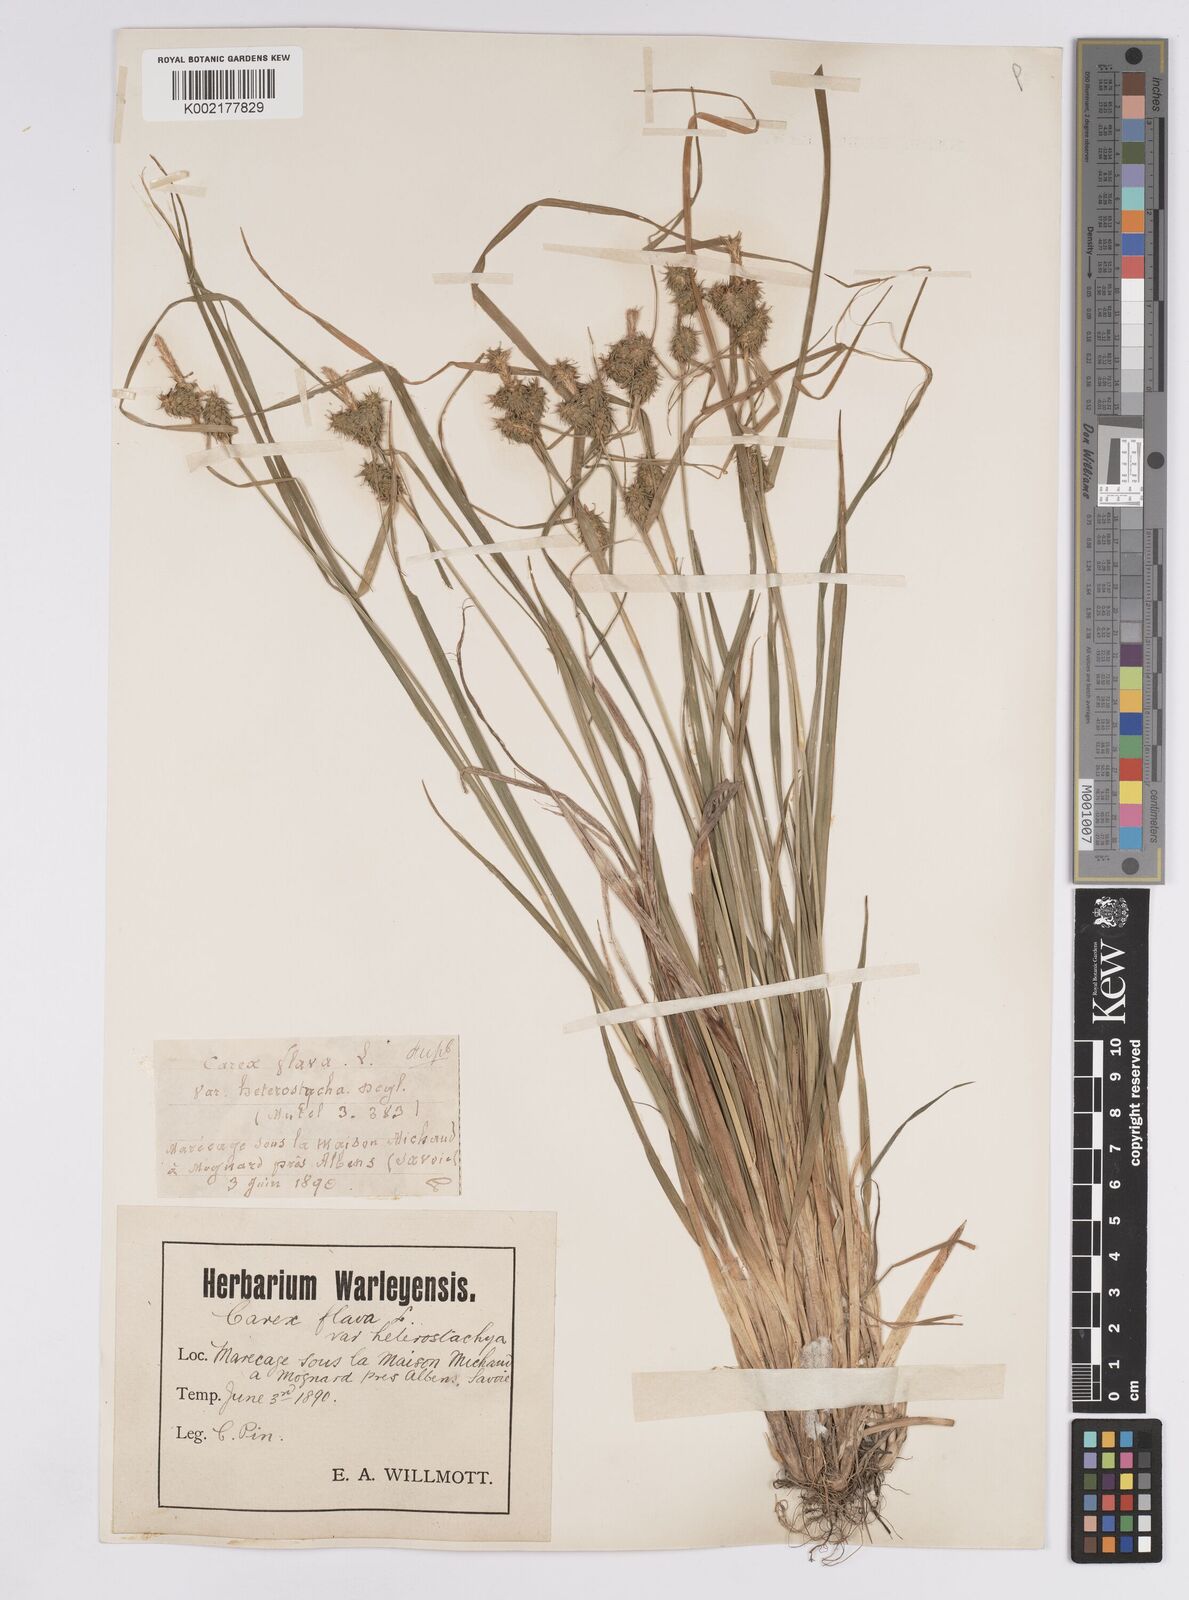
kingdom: Plantae
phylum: Tracheophyta
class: Liliopsida
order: Poales
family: Cyperaceae
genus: Carex
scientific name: Carex flava
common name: Large yellow-sedge
